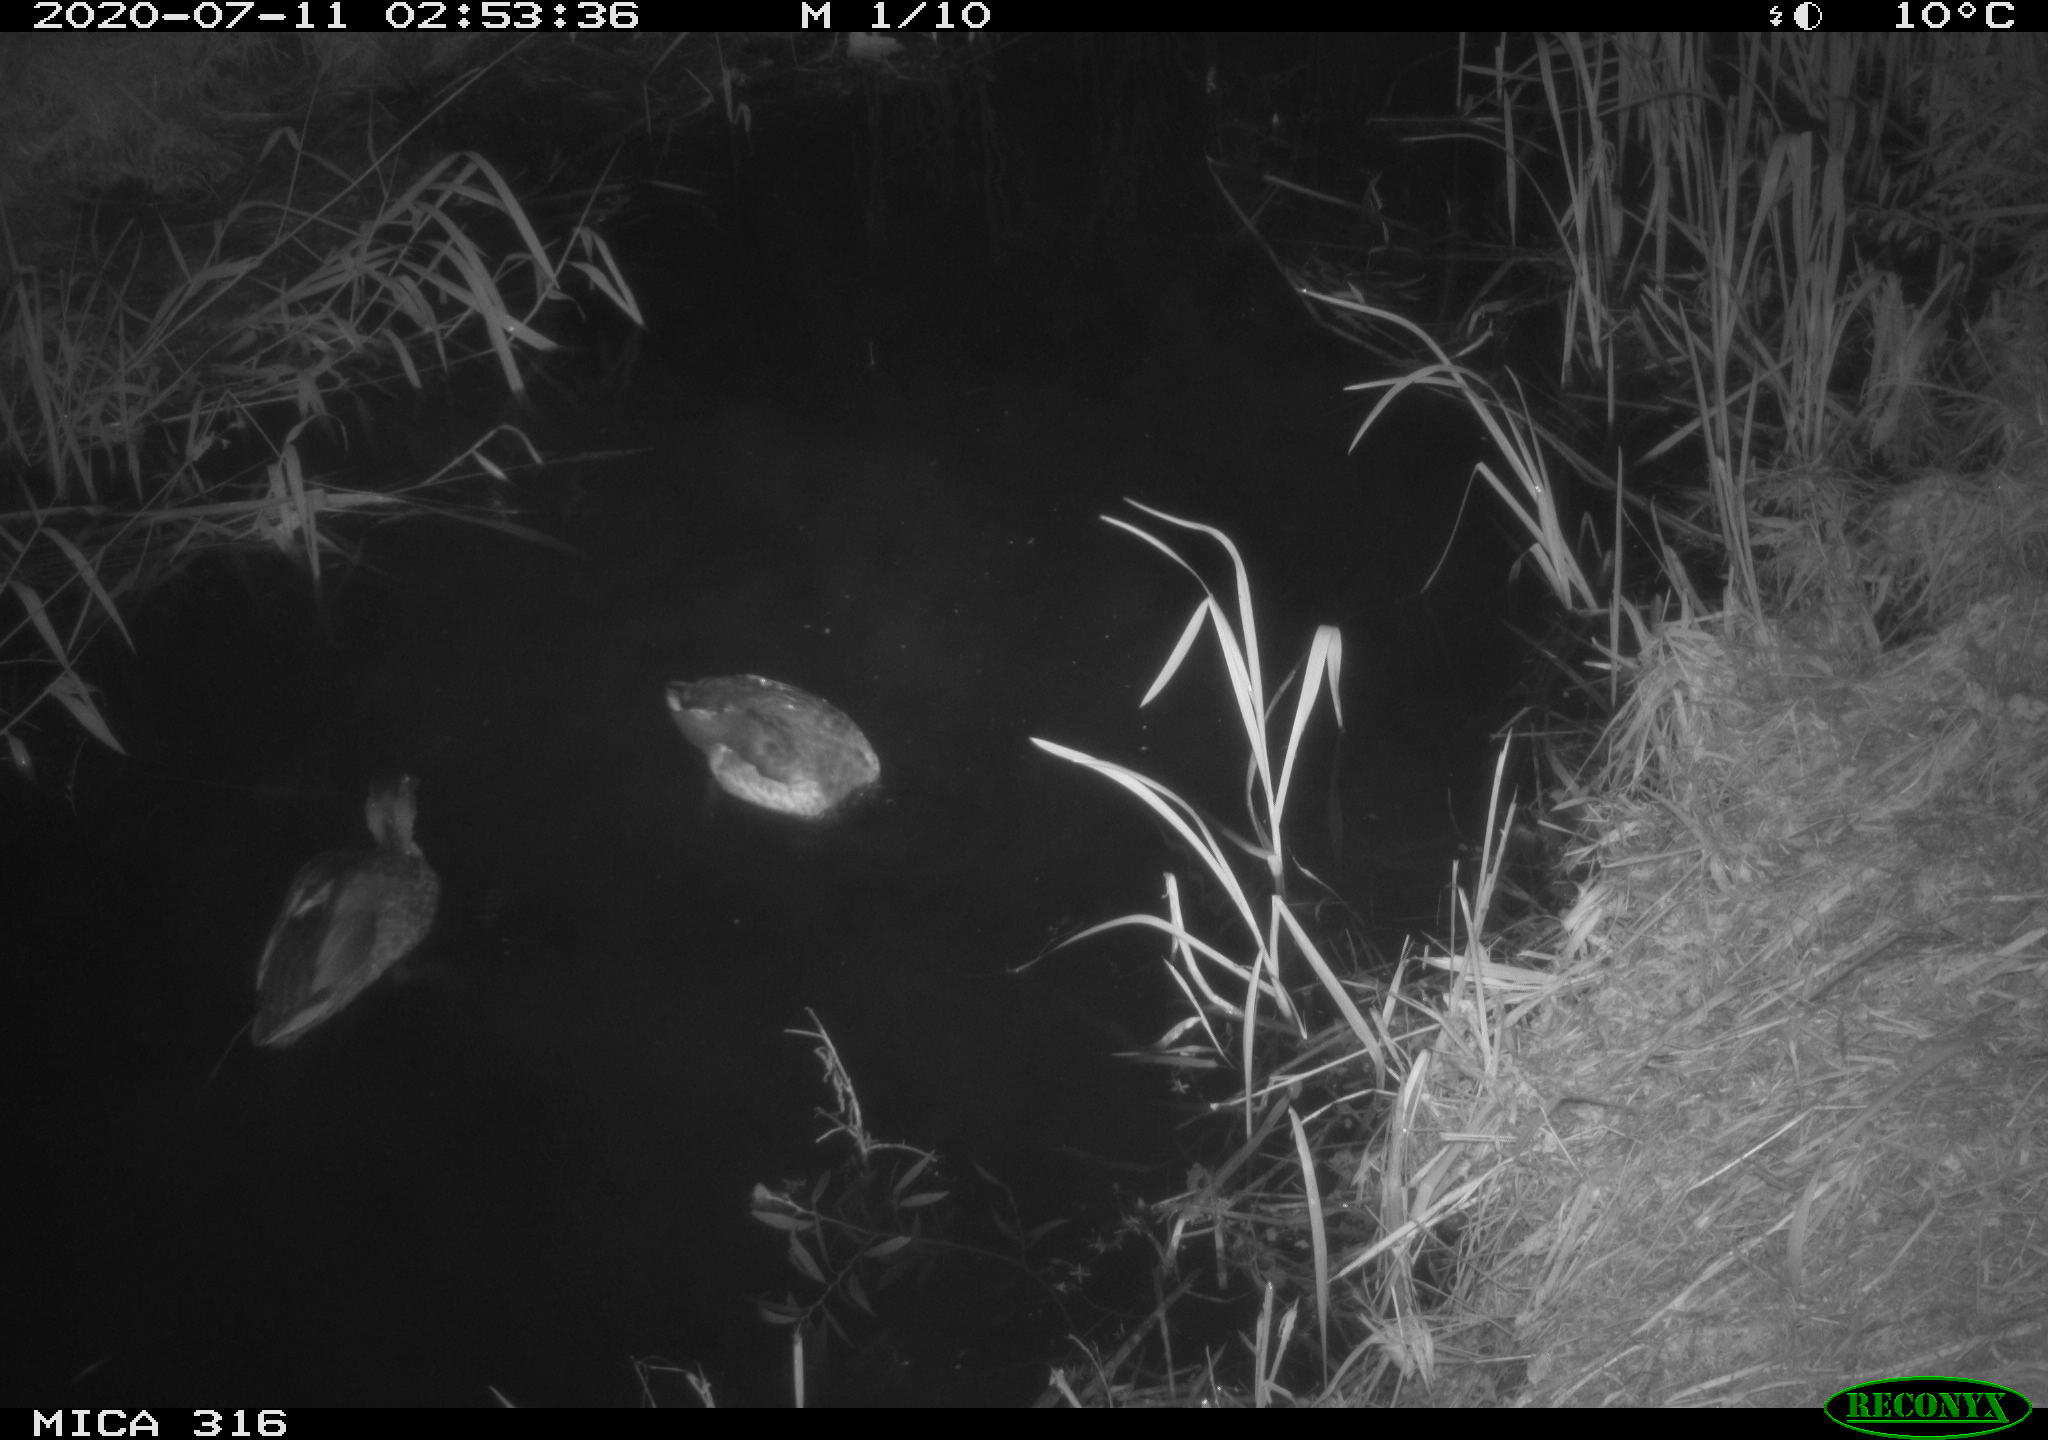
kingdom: Animalia
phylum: Chordata
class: Aves
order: Anseriformes
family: Anatidae
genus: Anas
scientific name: Anas platyrhynchos
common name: Mallard
